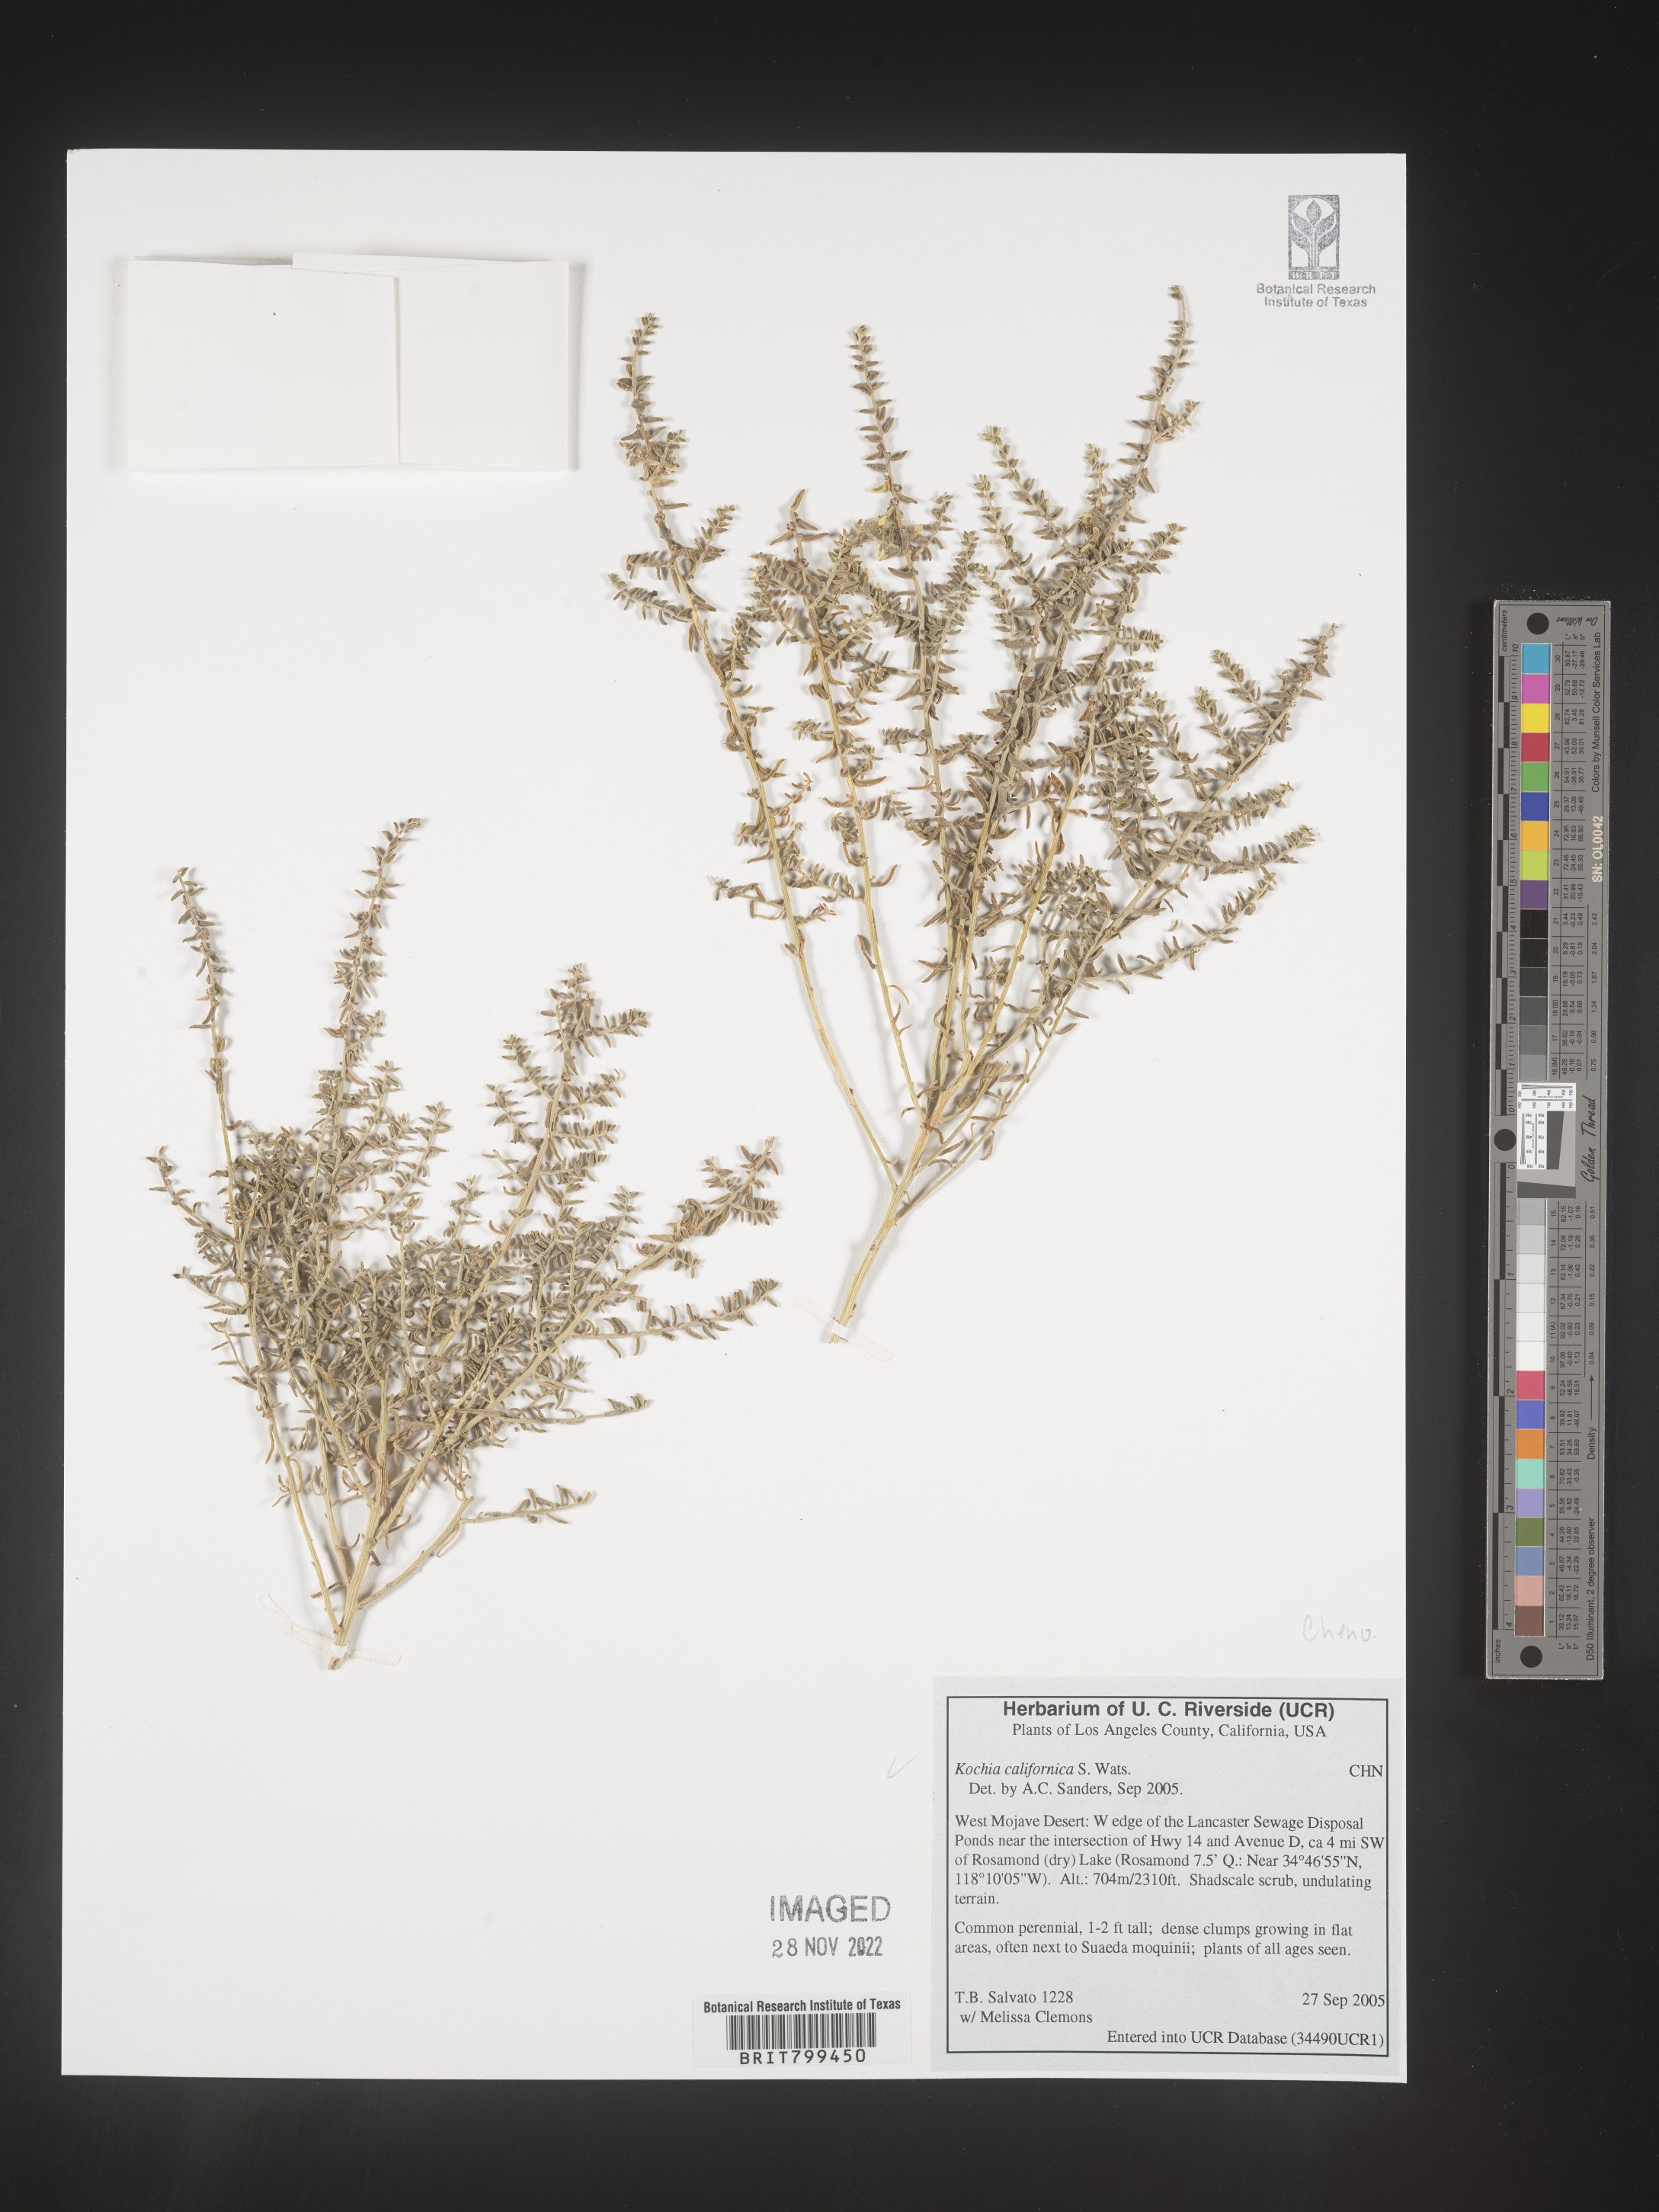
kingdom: Plantae
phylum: Tracheophyta
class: Magnoliopsida
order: Caryophyllales
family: Amaranthaceae
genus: Bassia
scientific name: Bassia
